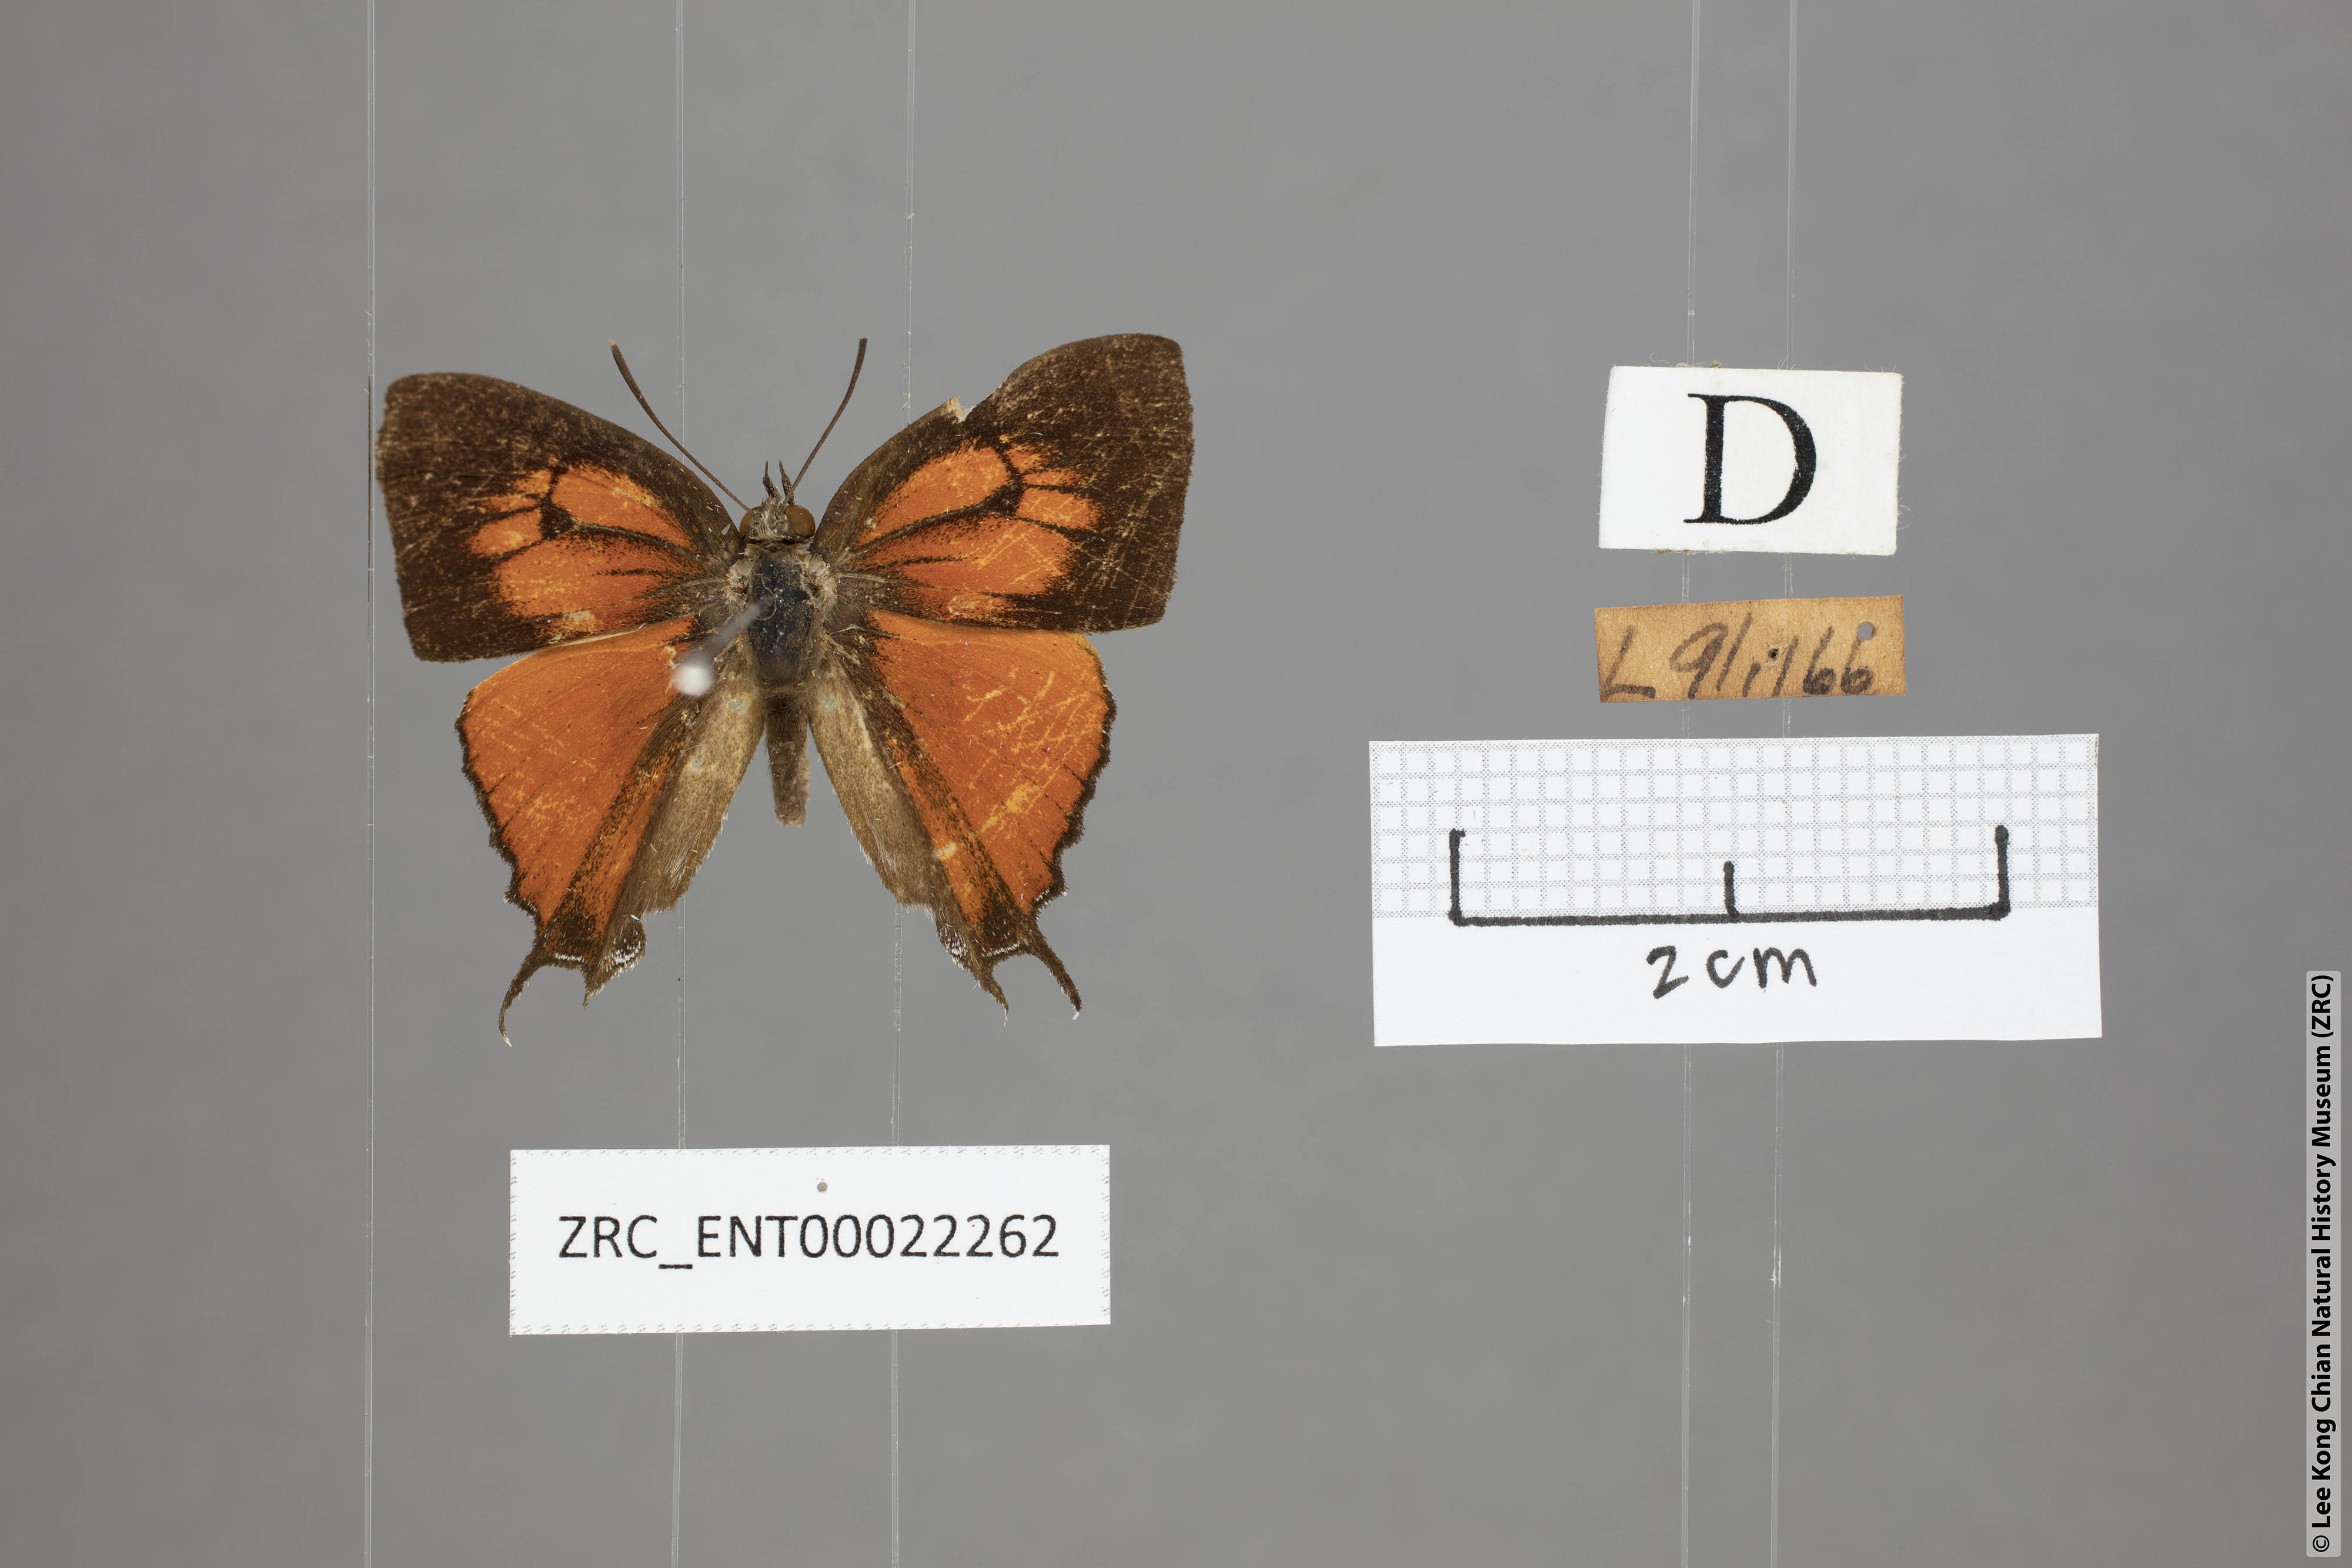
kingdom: Animalia
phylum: Arthropoda
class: Insecta
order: Lepidoptera
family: Lycaenidae
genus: Thamala
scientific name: Thamala marciana
